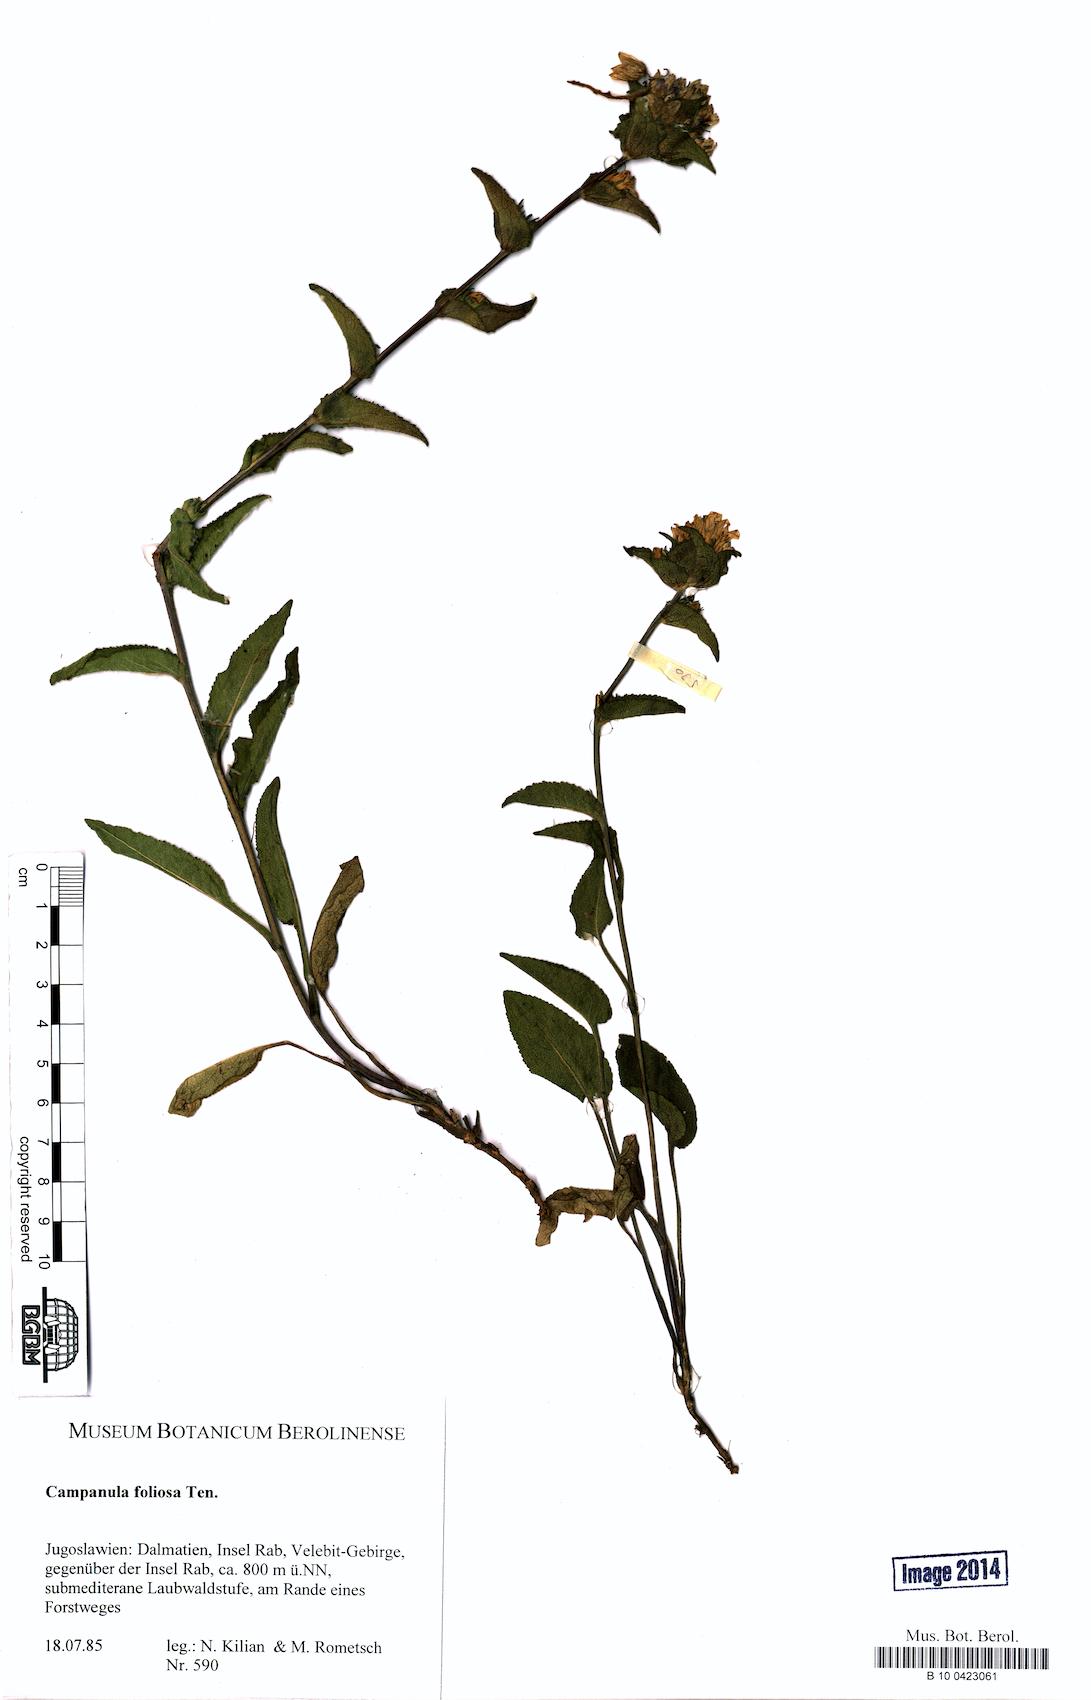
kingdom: Plantae
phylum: Tracheophyta
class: Magnoliopsida
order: Asterales
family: Campanulaceae
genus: Campanula
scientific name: Campanula foliosa
